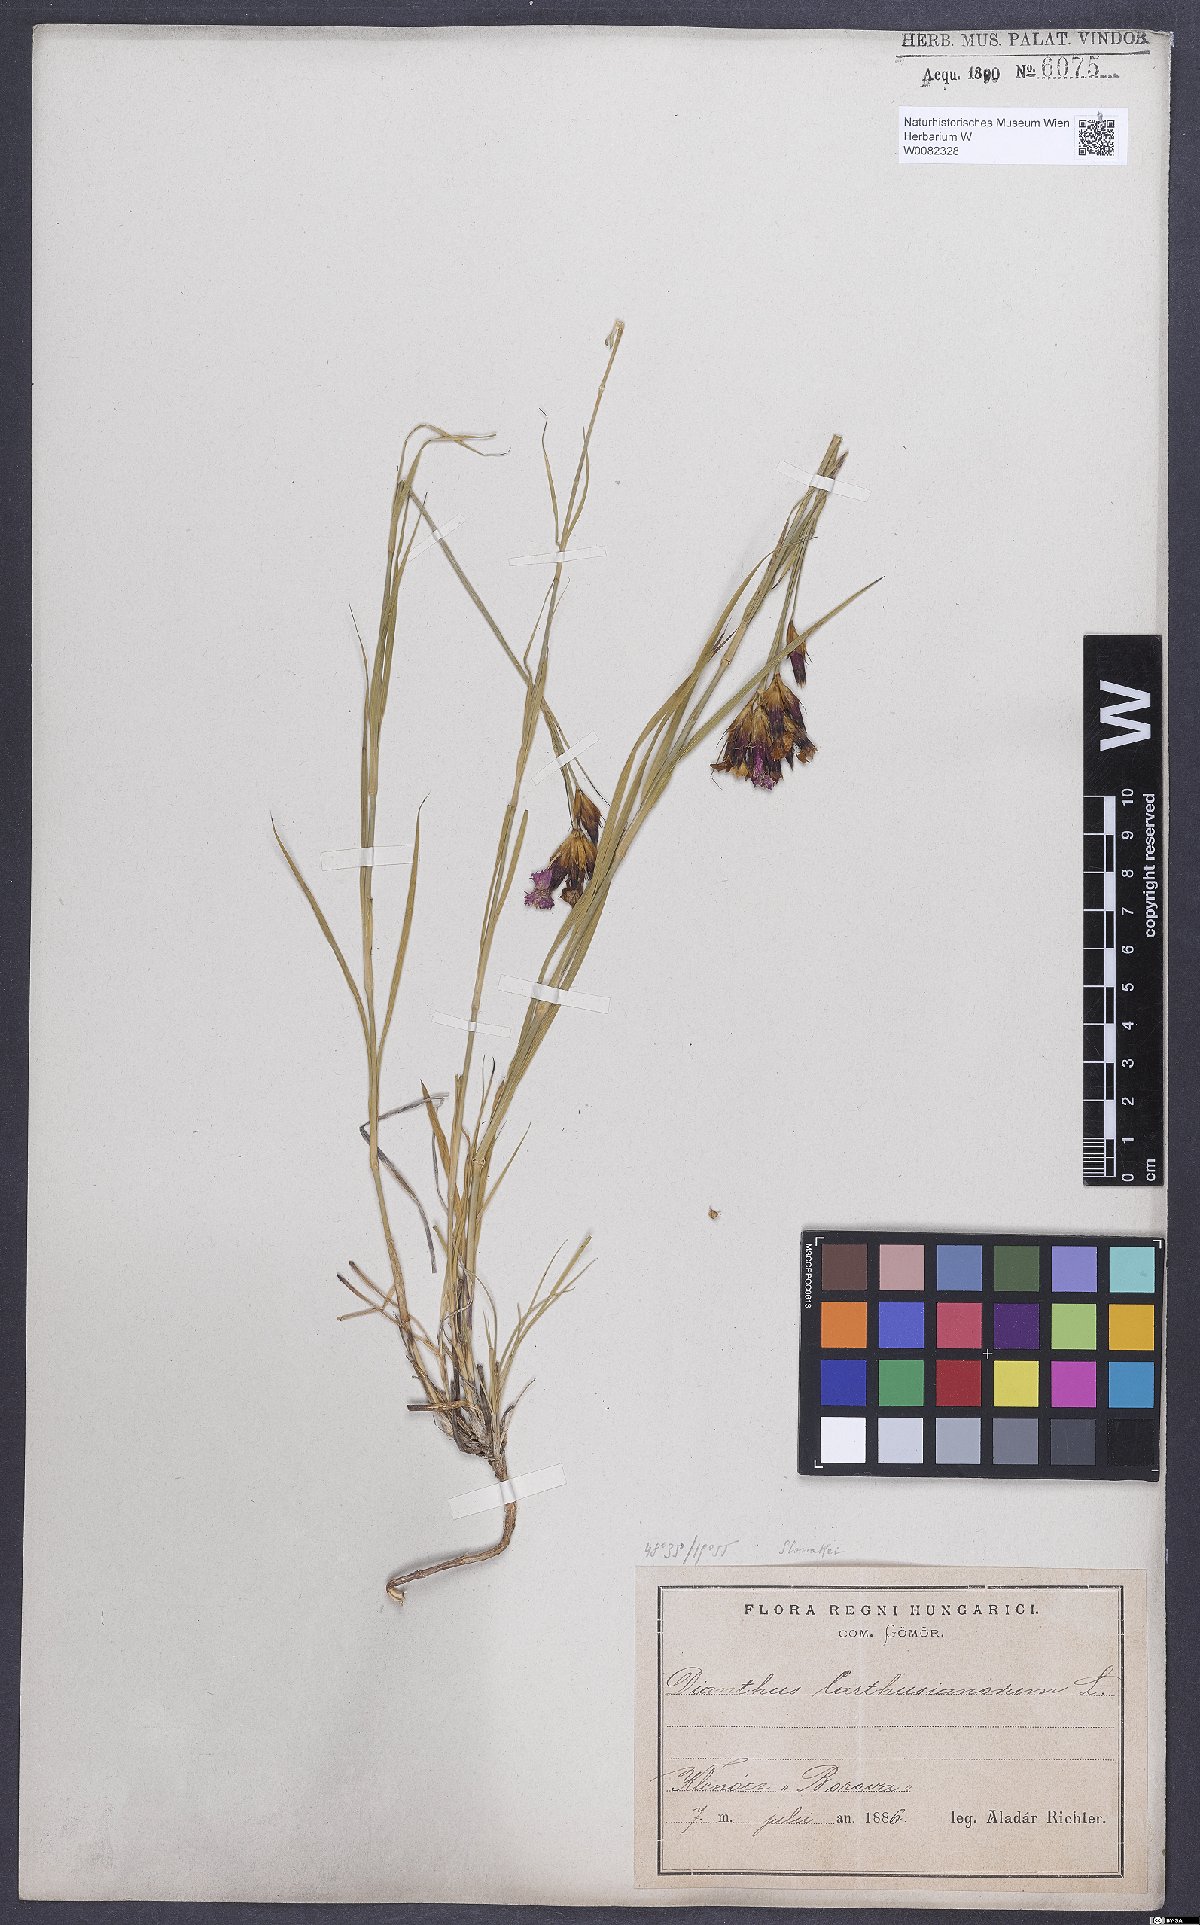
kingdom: Plantae
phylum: Tracheophyta
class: Magnoliopsida
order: Caryophyllales
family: Caryophyllaceae
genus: Dianthus
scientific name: Dianthus carthusianorum
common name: Carthusian pink
